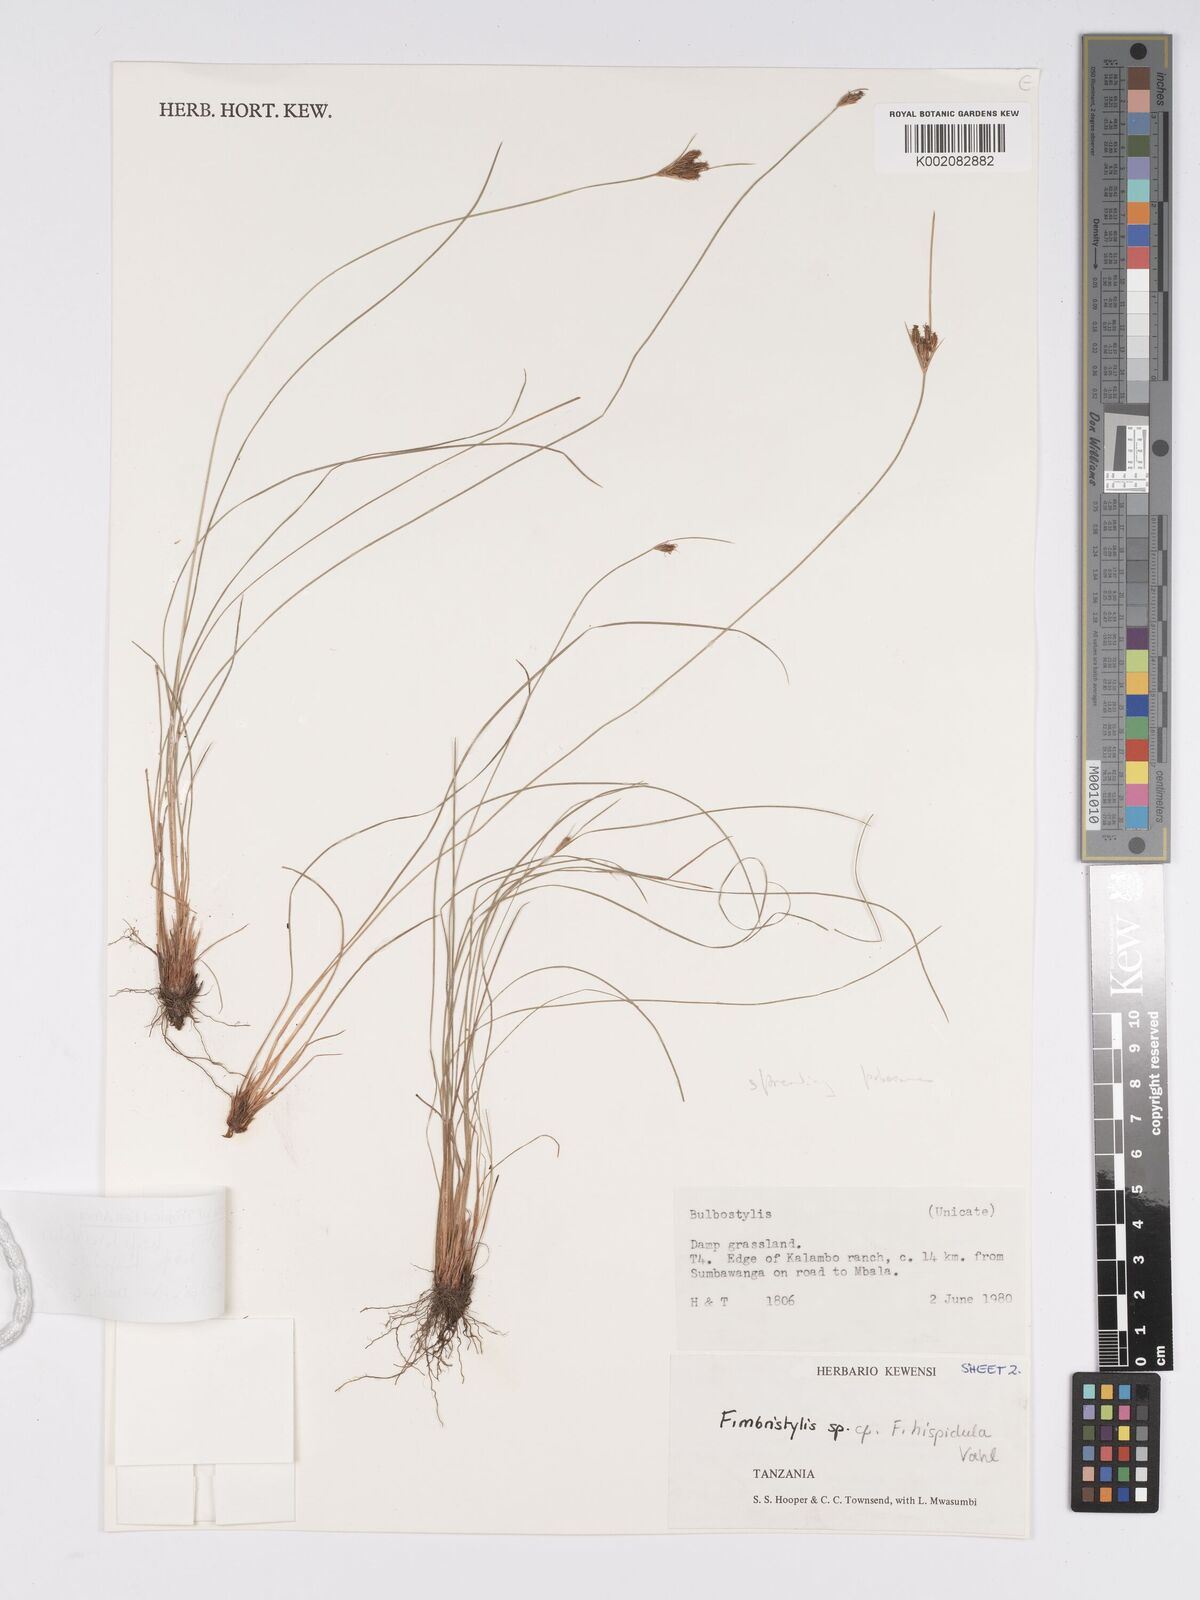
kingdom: Plantae
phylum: Tracheophyta
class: Liliopsida
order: Poales
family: Cyperaceae
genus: Bulbostylis
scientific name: Bulbostylis hispidula
